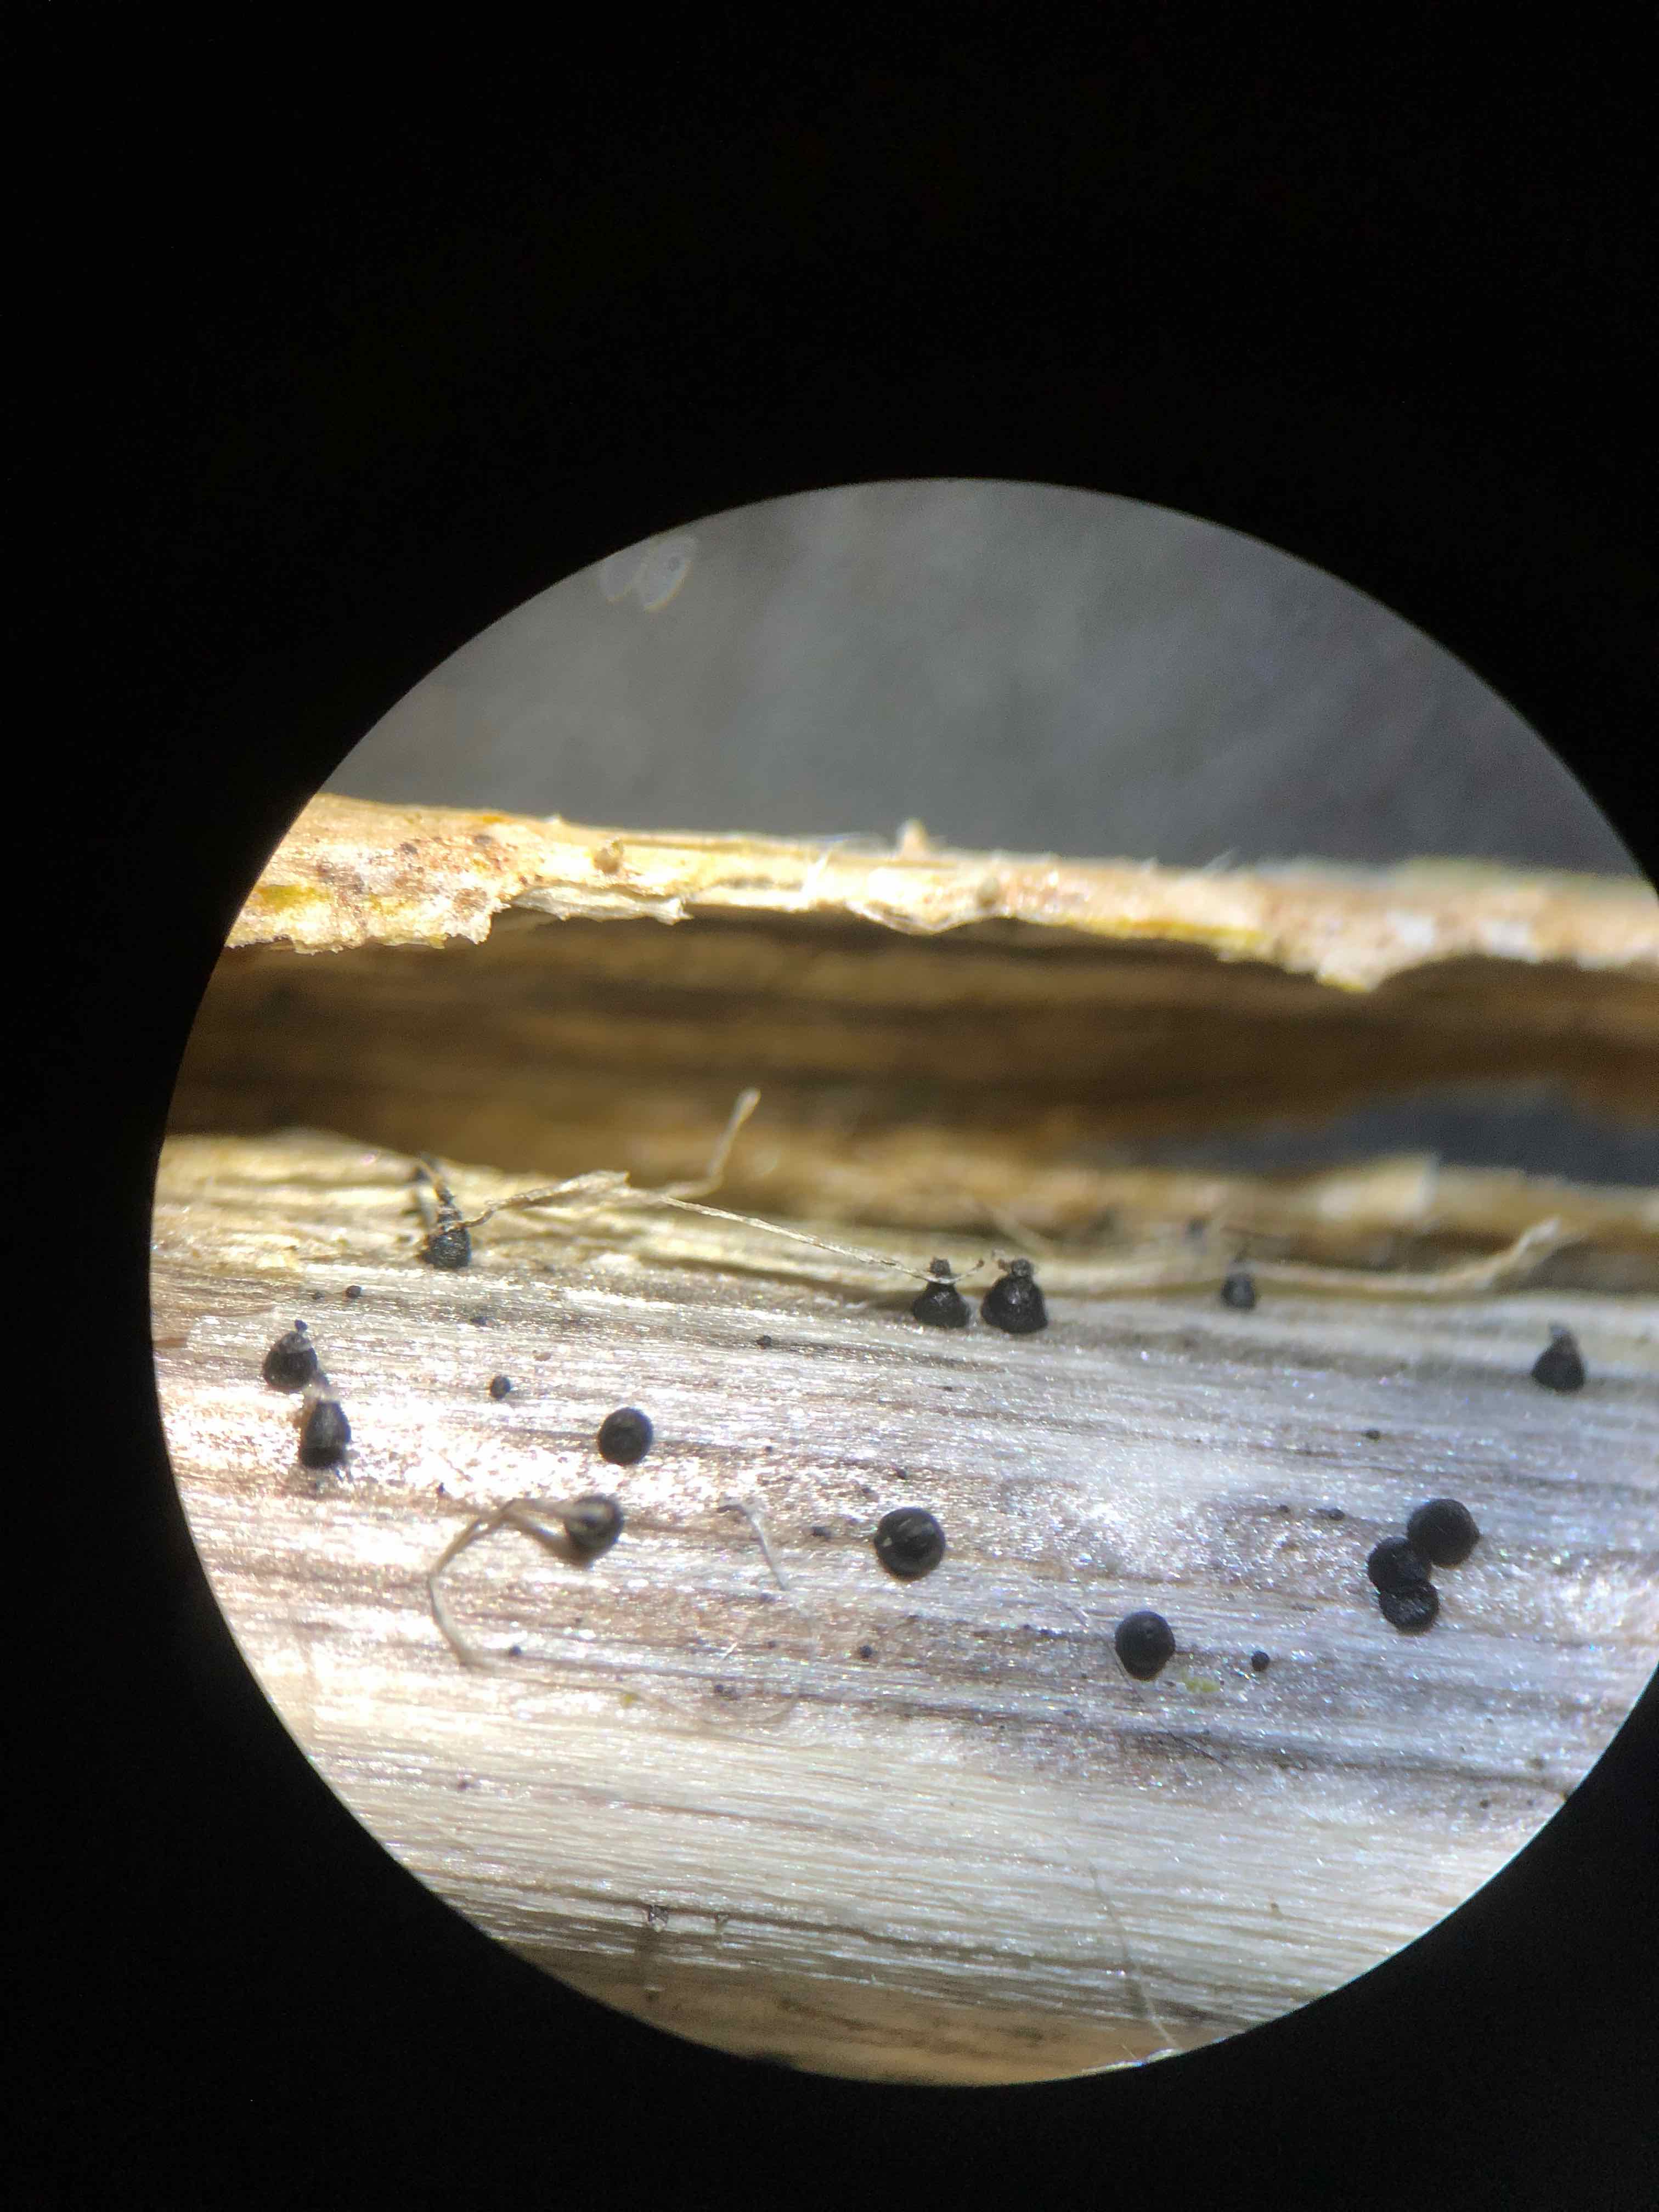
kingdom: Fungi
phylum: Ascomycota
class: Dothideomycetes
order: Pleosporales
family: Leptosphaeriaceae
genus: Leptosphaeria
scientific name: Leptosphaeria acuta
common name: spids kulkegle
